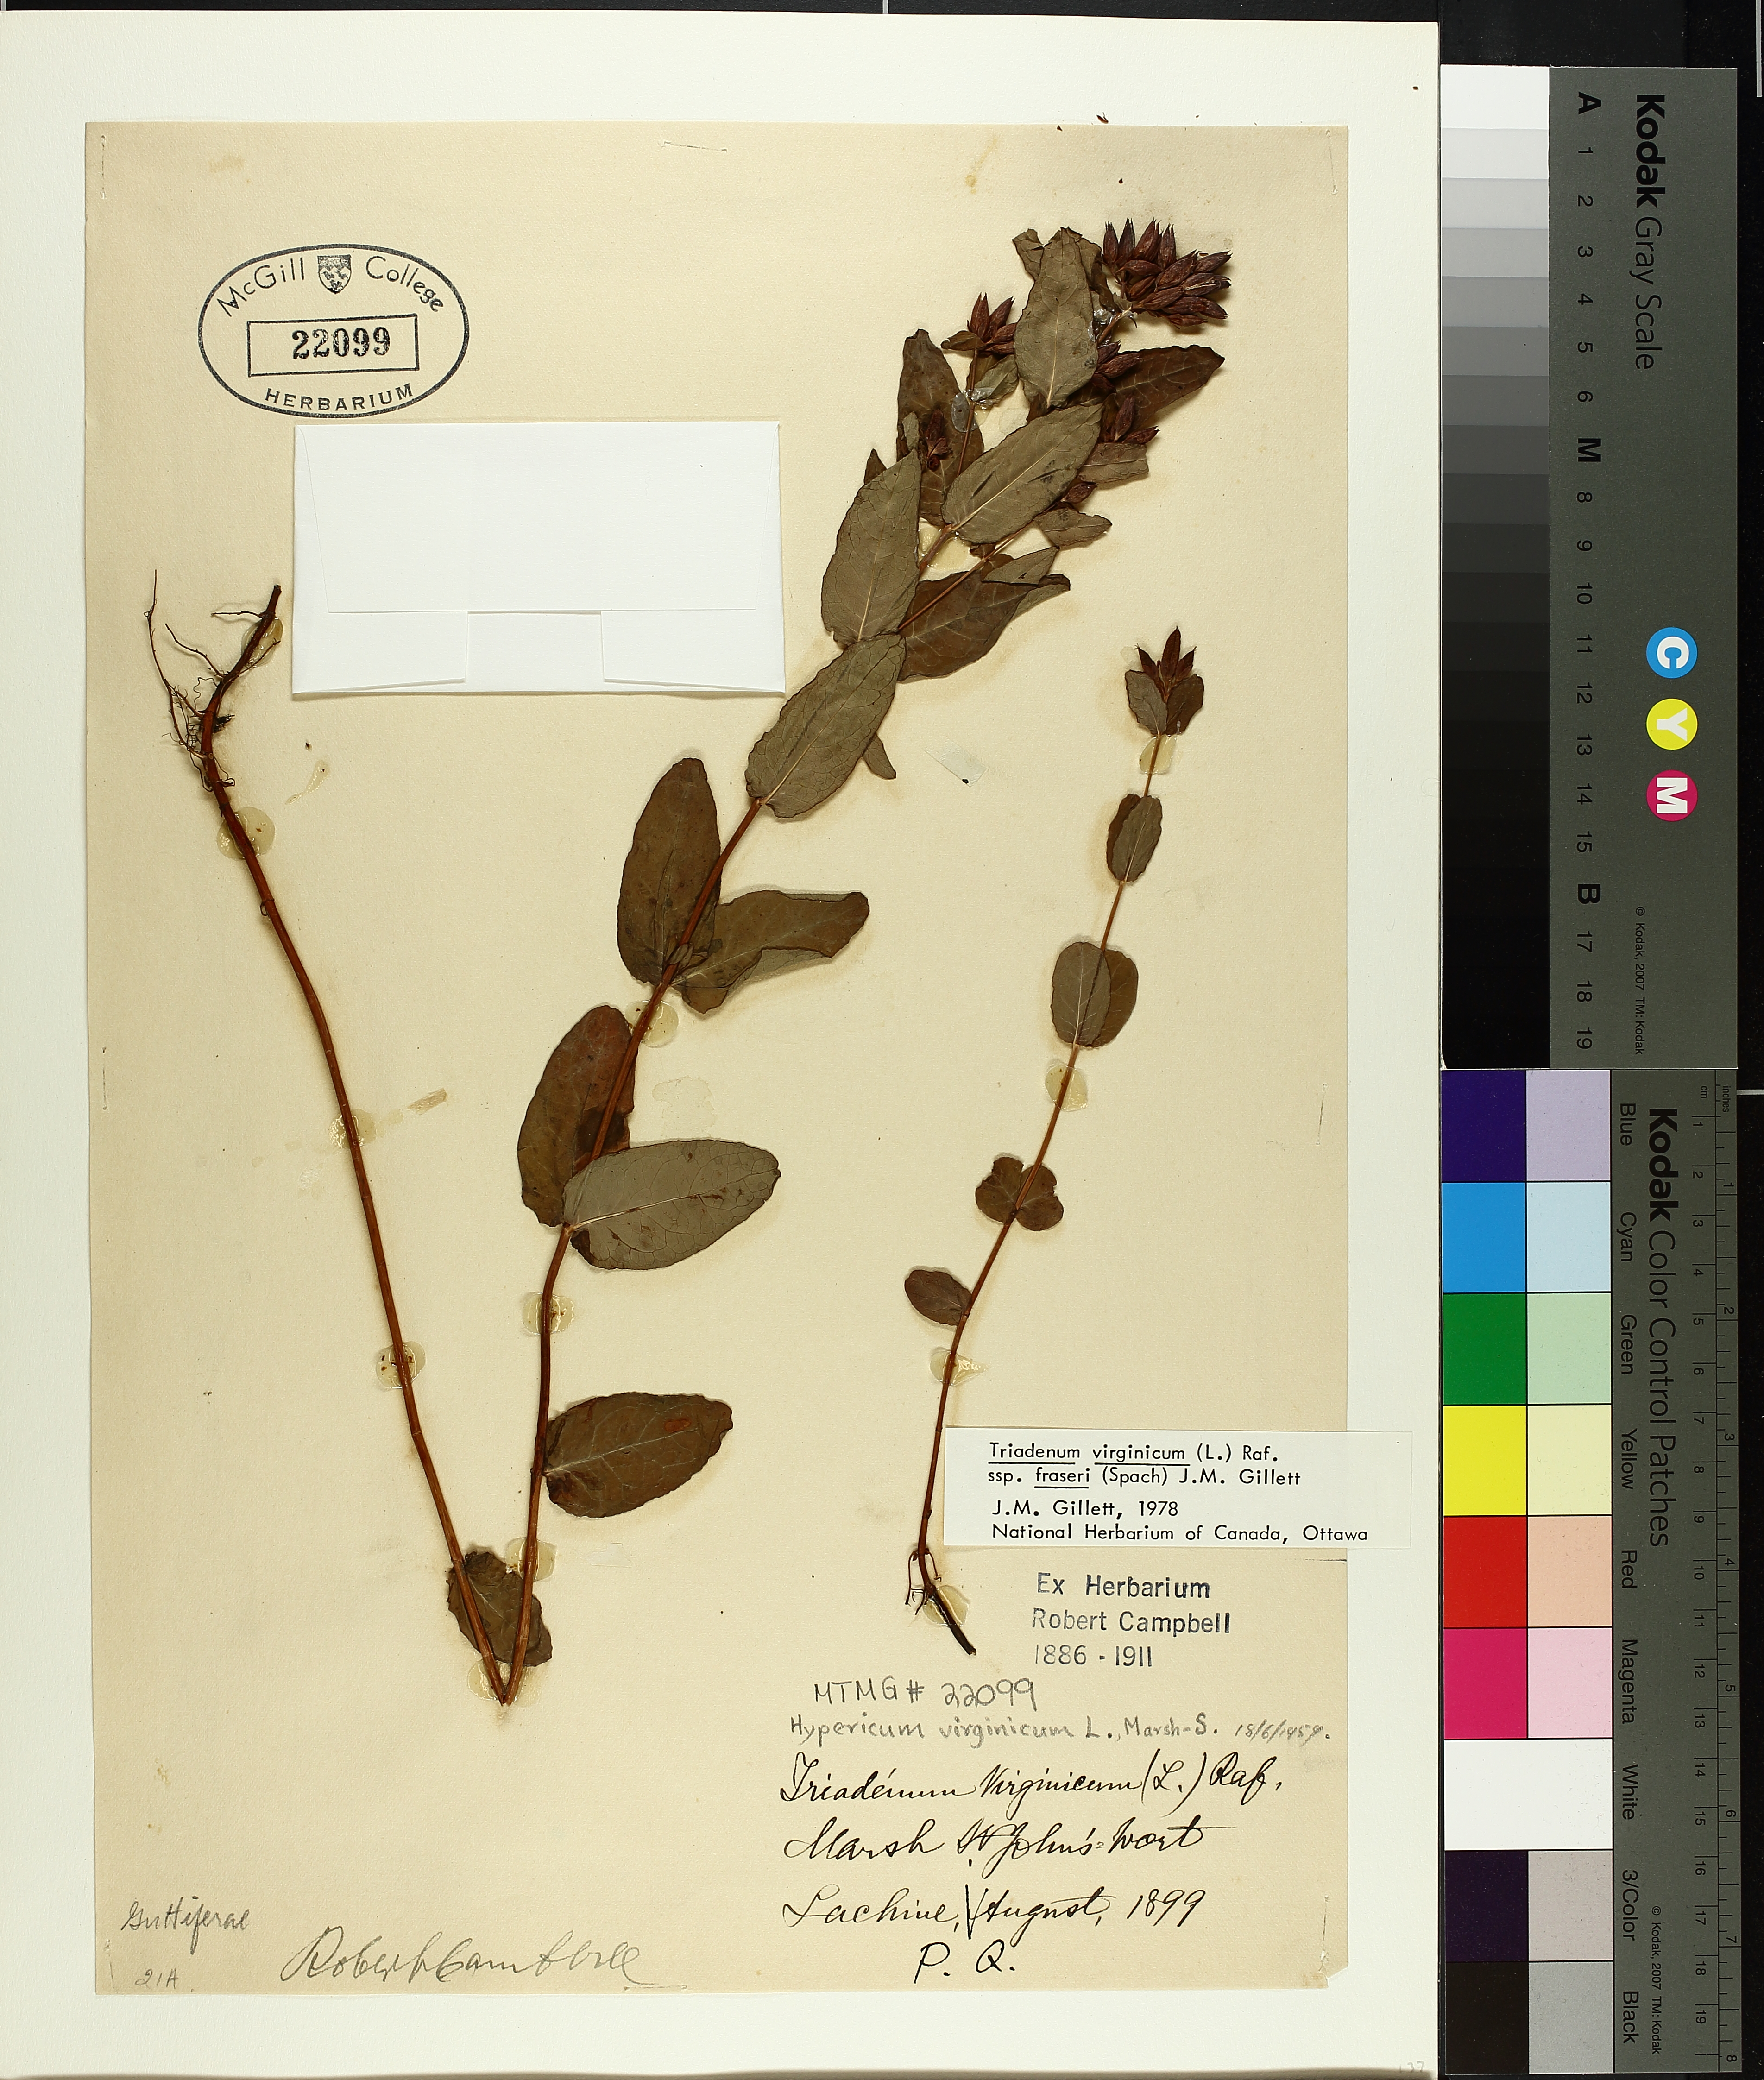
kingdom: Plantae
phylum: Tracheophyta
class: Magnoliopsida
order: Malpighiales
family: Hypericaceae
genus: Triadenum
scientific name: Triadenum fraseri
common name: Fraser's marsh st. johnswort
